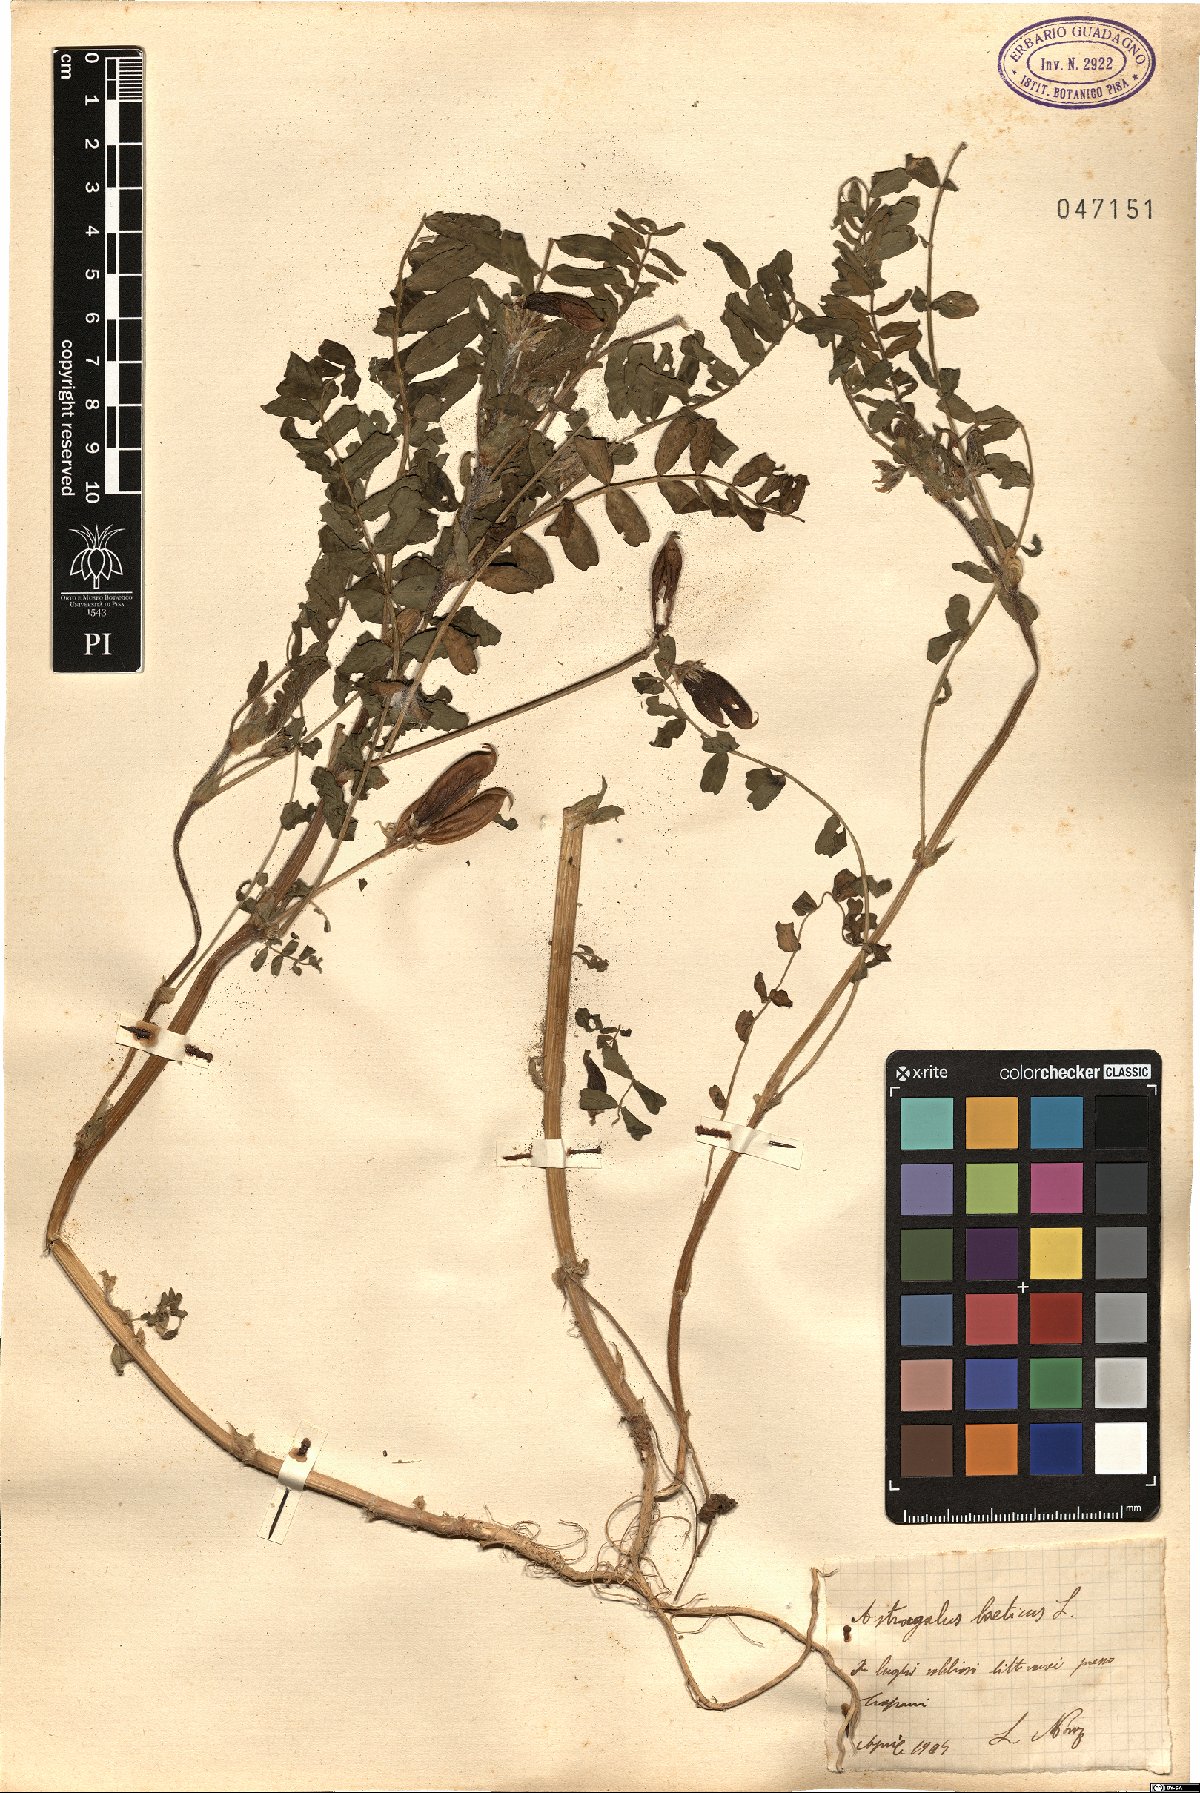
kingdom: Plantae
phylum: Tracheophyta
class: Magnoliopsida
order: Fabales
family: Fabaceae
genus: Astragalus
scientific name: Astragalus boeticus
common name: Milk-vetch
